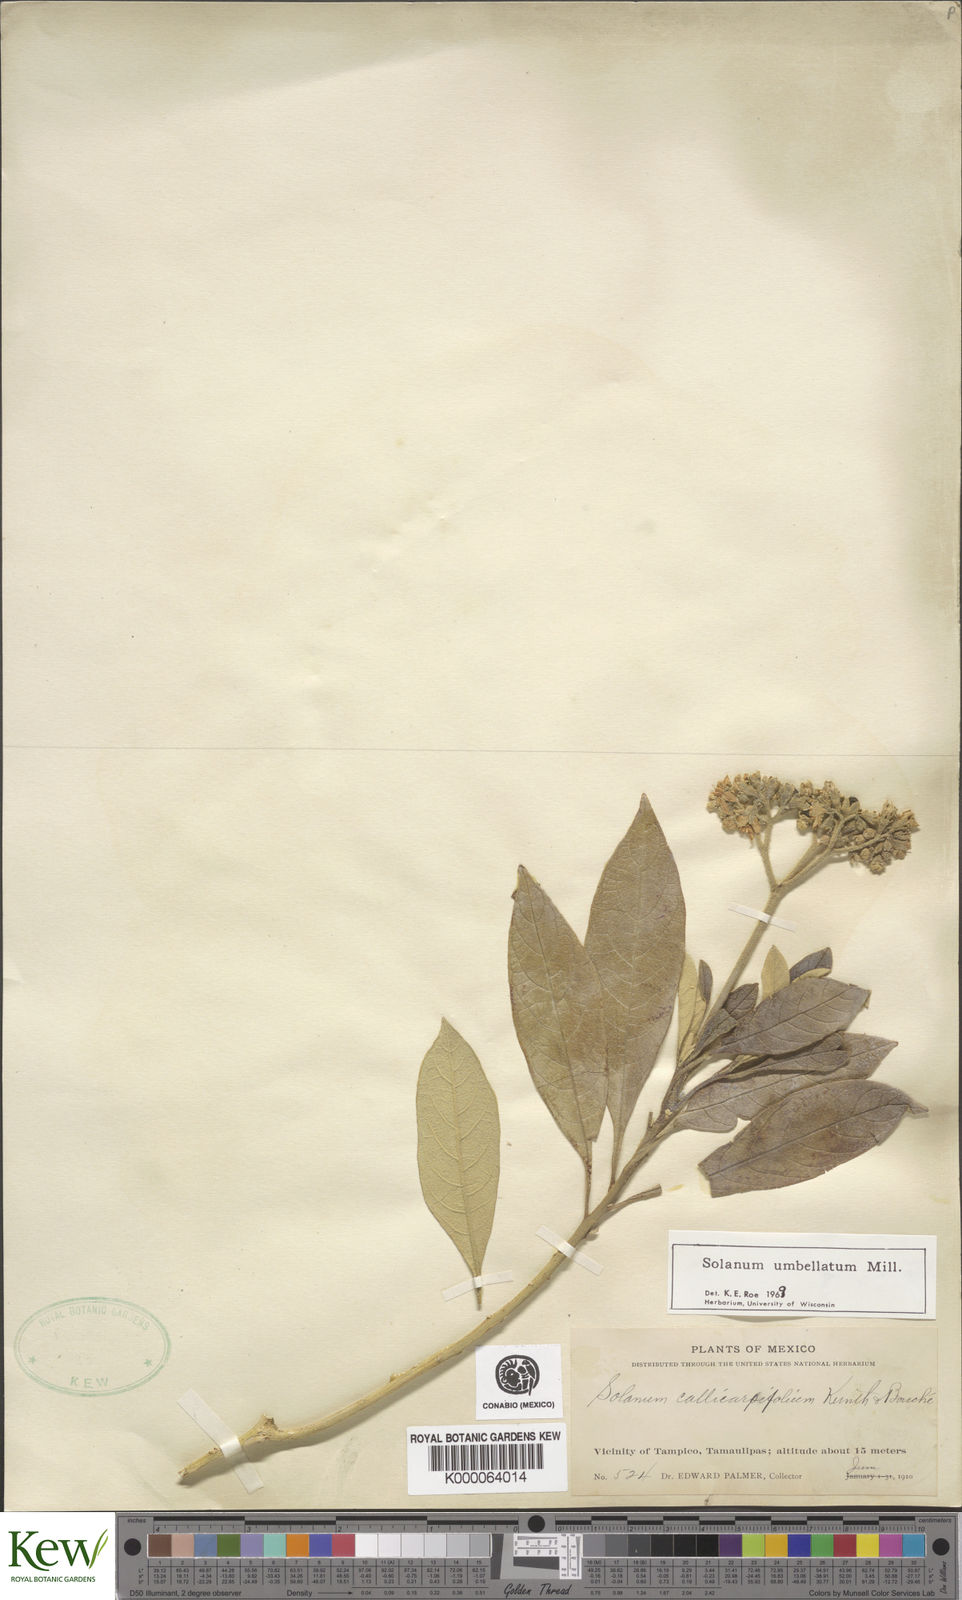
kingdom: Plantae
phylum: Tracheophyta
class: Magnoliopsida
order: Solanales
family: Solanaceae
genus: Solanum
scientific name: Solanum umbellatum
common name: Nightshade
